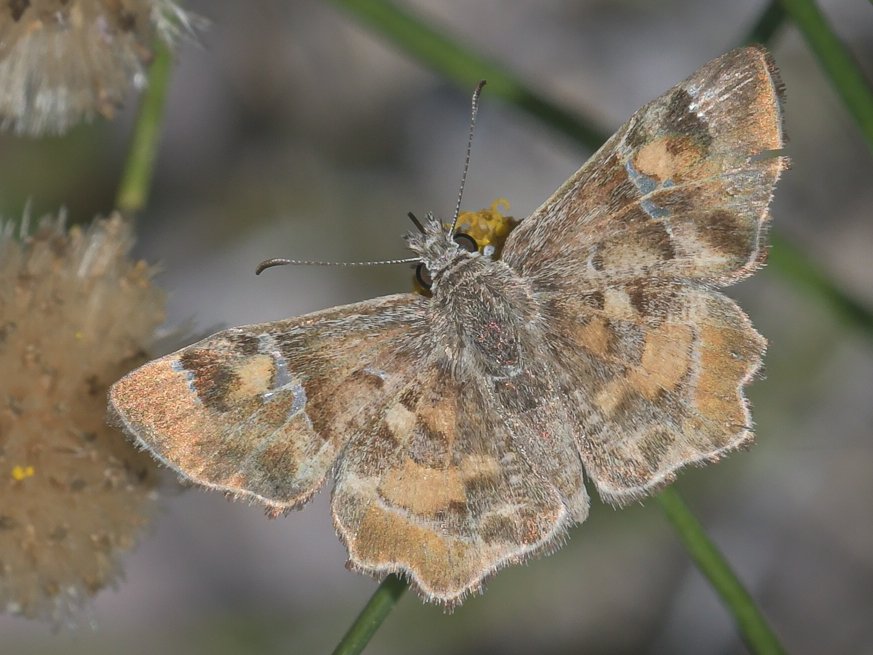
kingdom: Animalia
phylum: Arthropoda
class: Insecta
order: Lepidoptera
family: Hesperiidae
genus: Systasea
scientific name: Systasea zampa
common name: Arizona Powdered-Skipper
